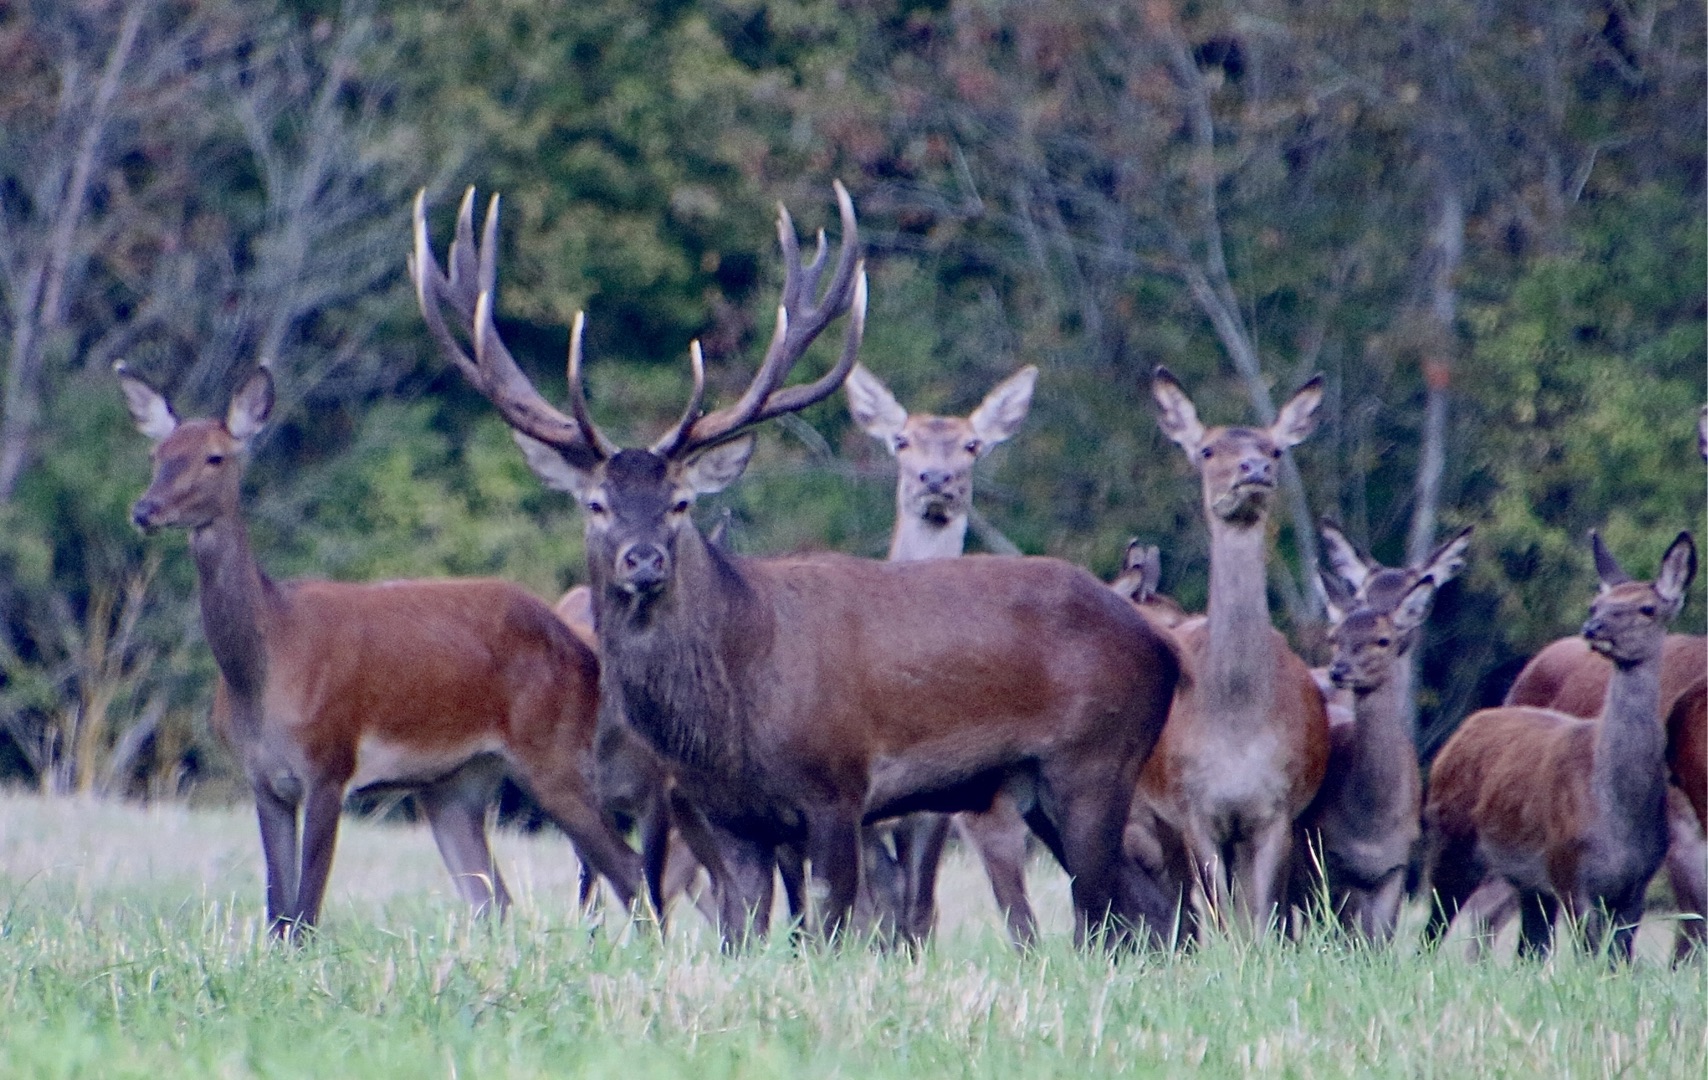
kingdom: Animalia
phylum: Chordata
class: Mammalia
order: Artiodactyla
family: Cervidae
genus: Cervus
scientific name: Cervus elaphus
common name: Krondyr
